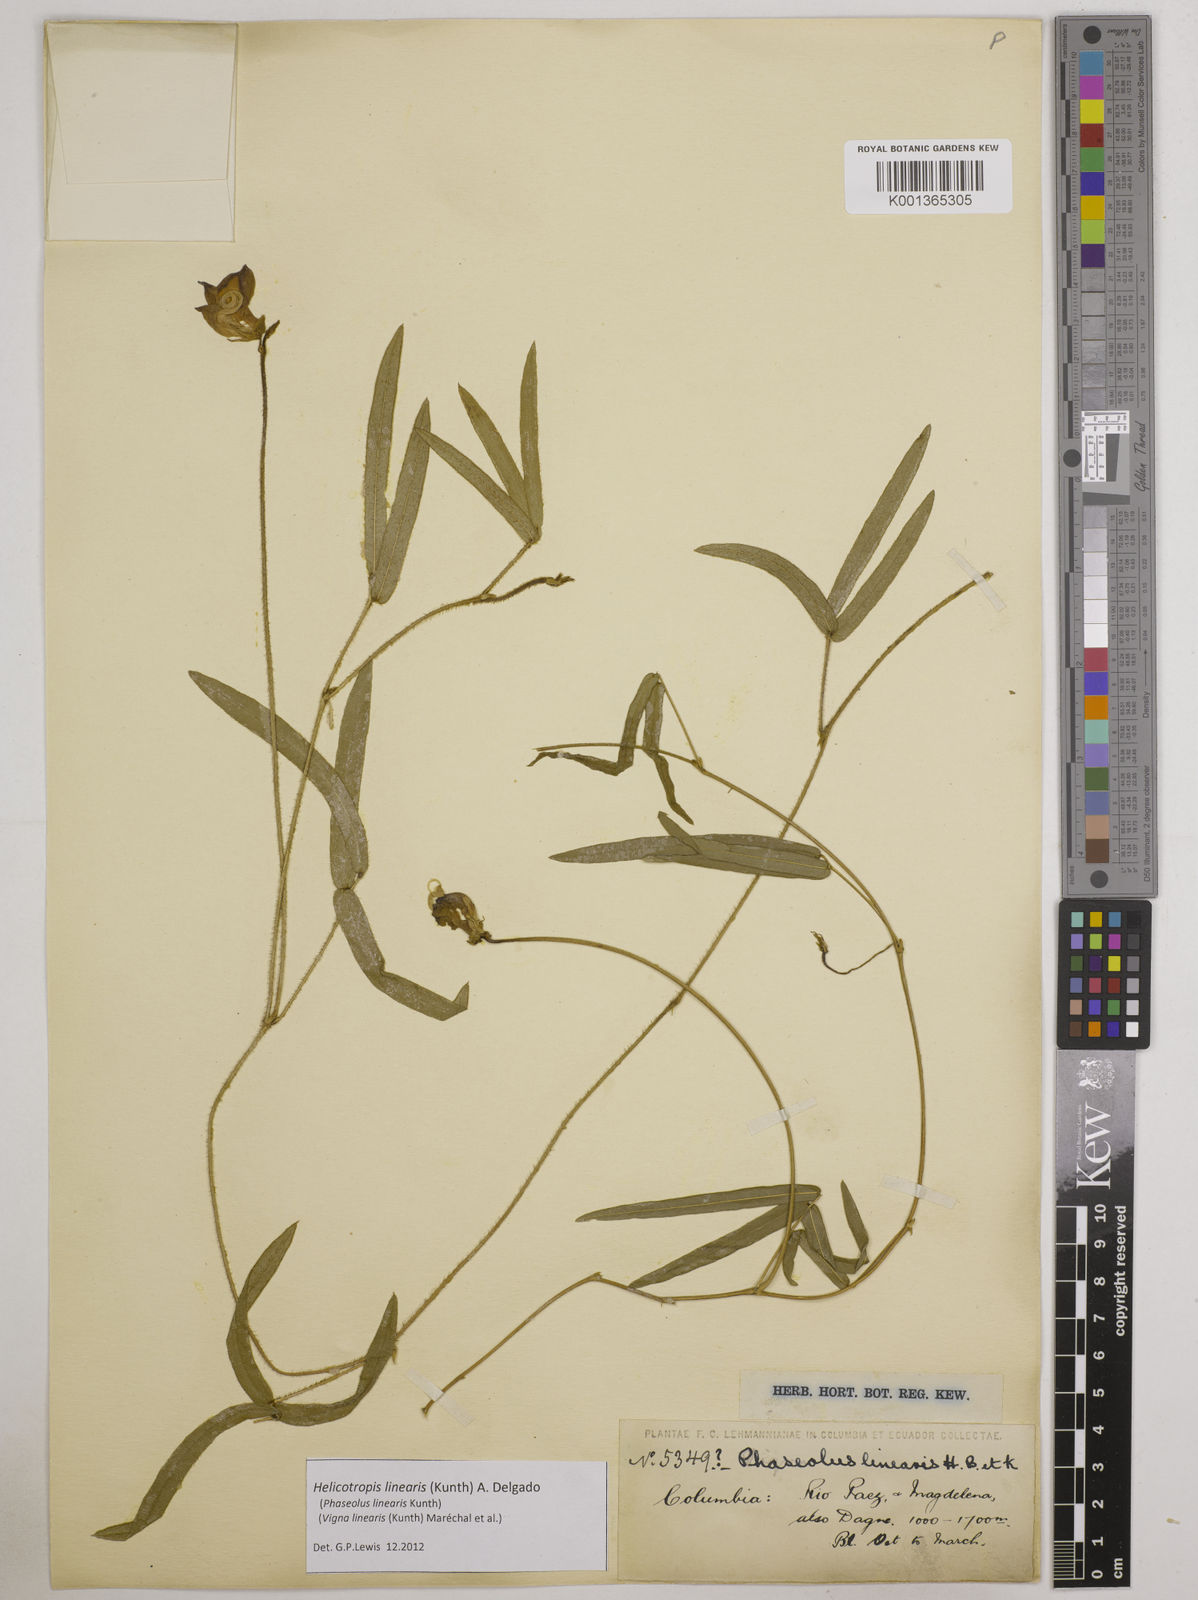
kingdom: Plantae
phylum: Tracheophyta
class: Magnoliopsida
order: Fabales
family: Fabaceae
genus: Helicotropis
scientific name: Helicotropis linearis
